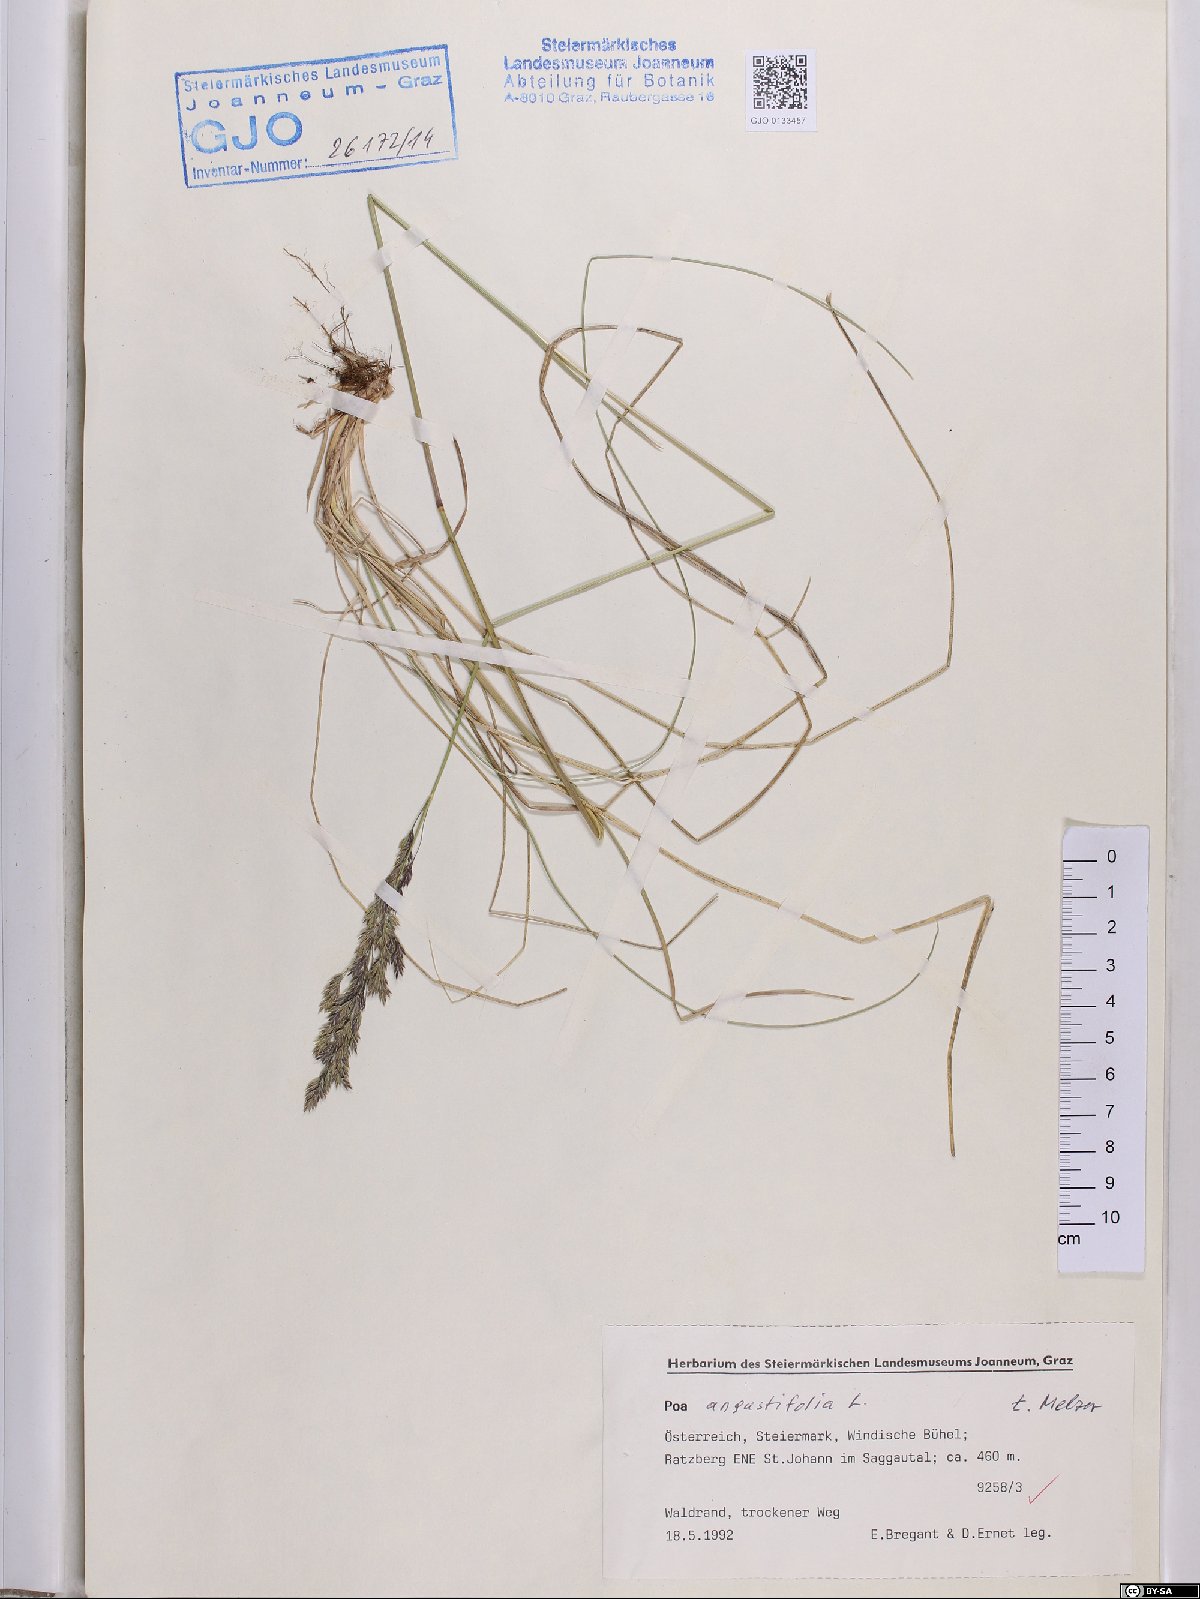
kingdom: Plantae
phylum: Tracheophyta
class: Liliopsida
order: Poales
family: Poaceae
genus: Poa
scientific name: Poa angustifolia
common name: Narrow-leaved meadow-grass
